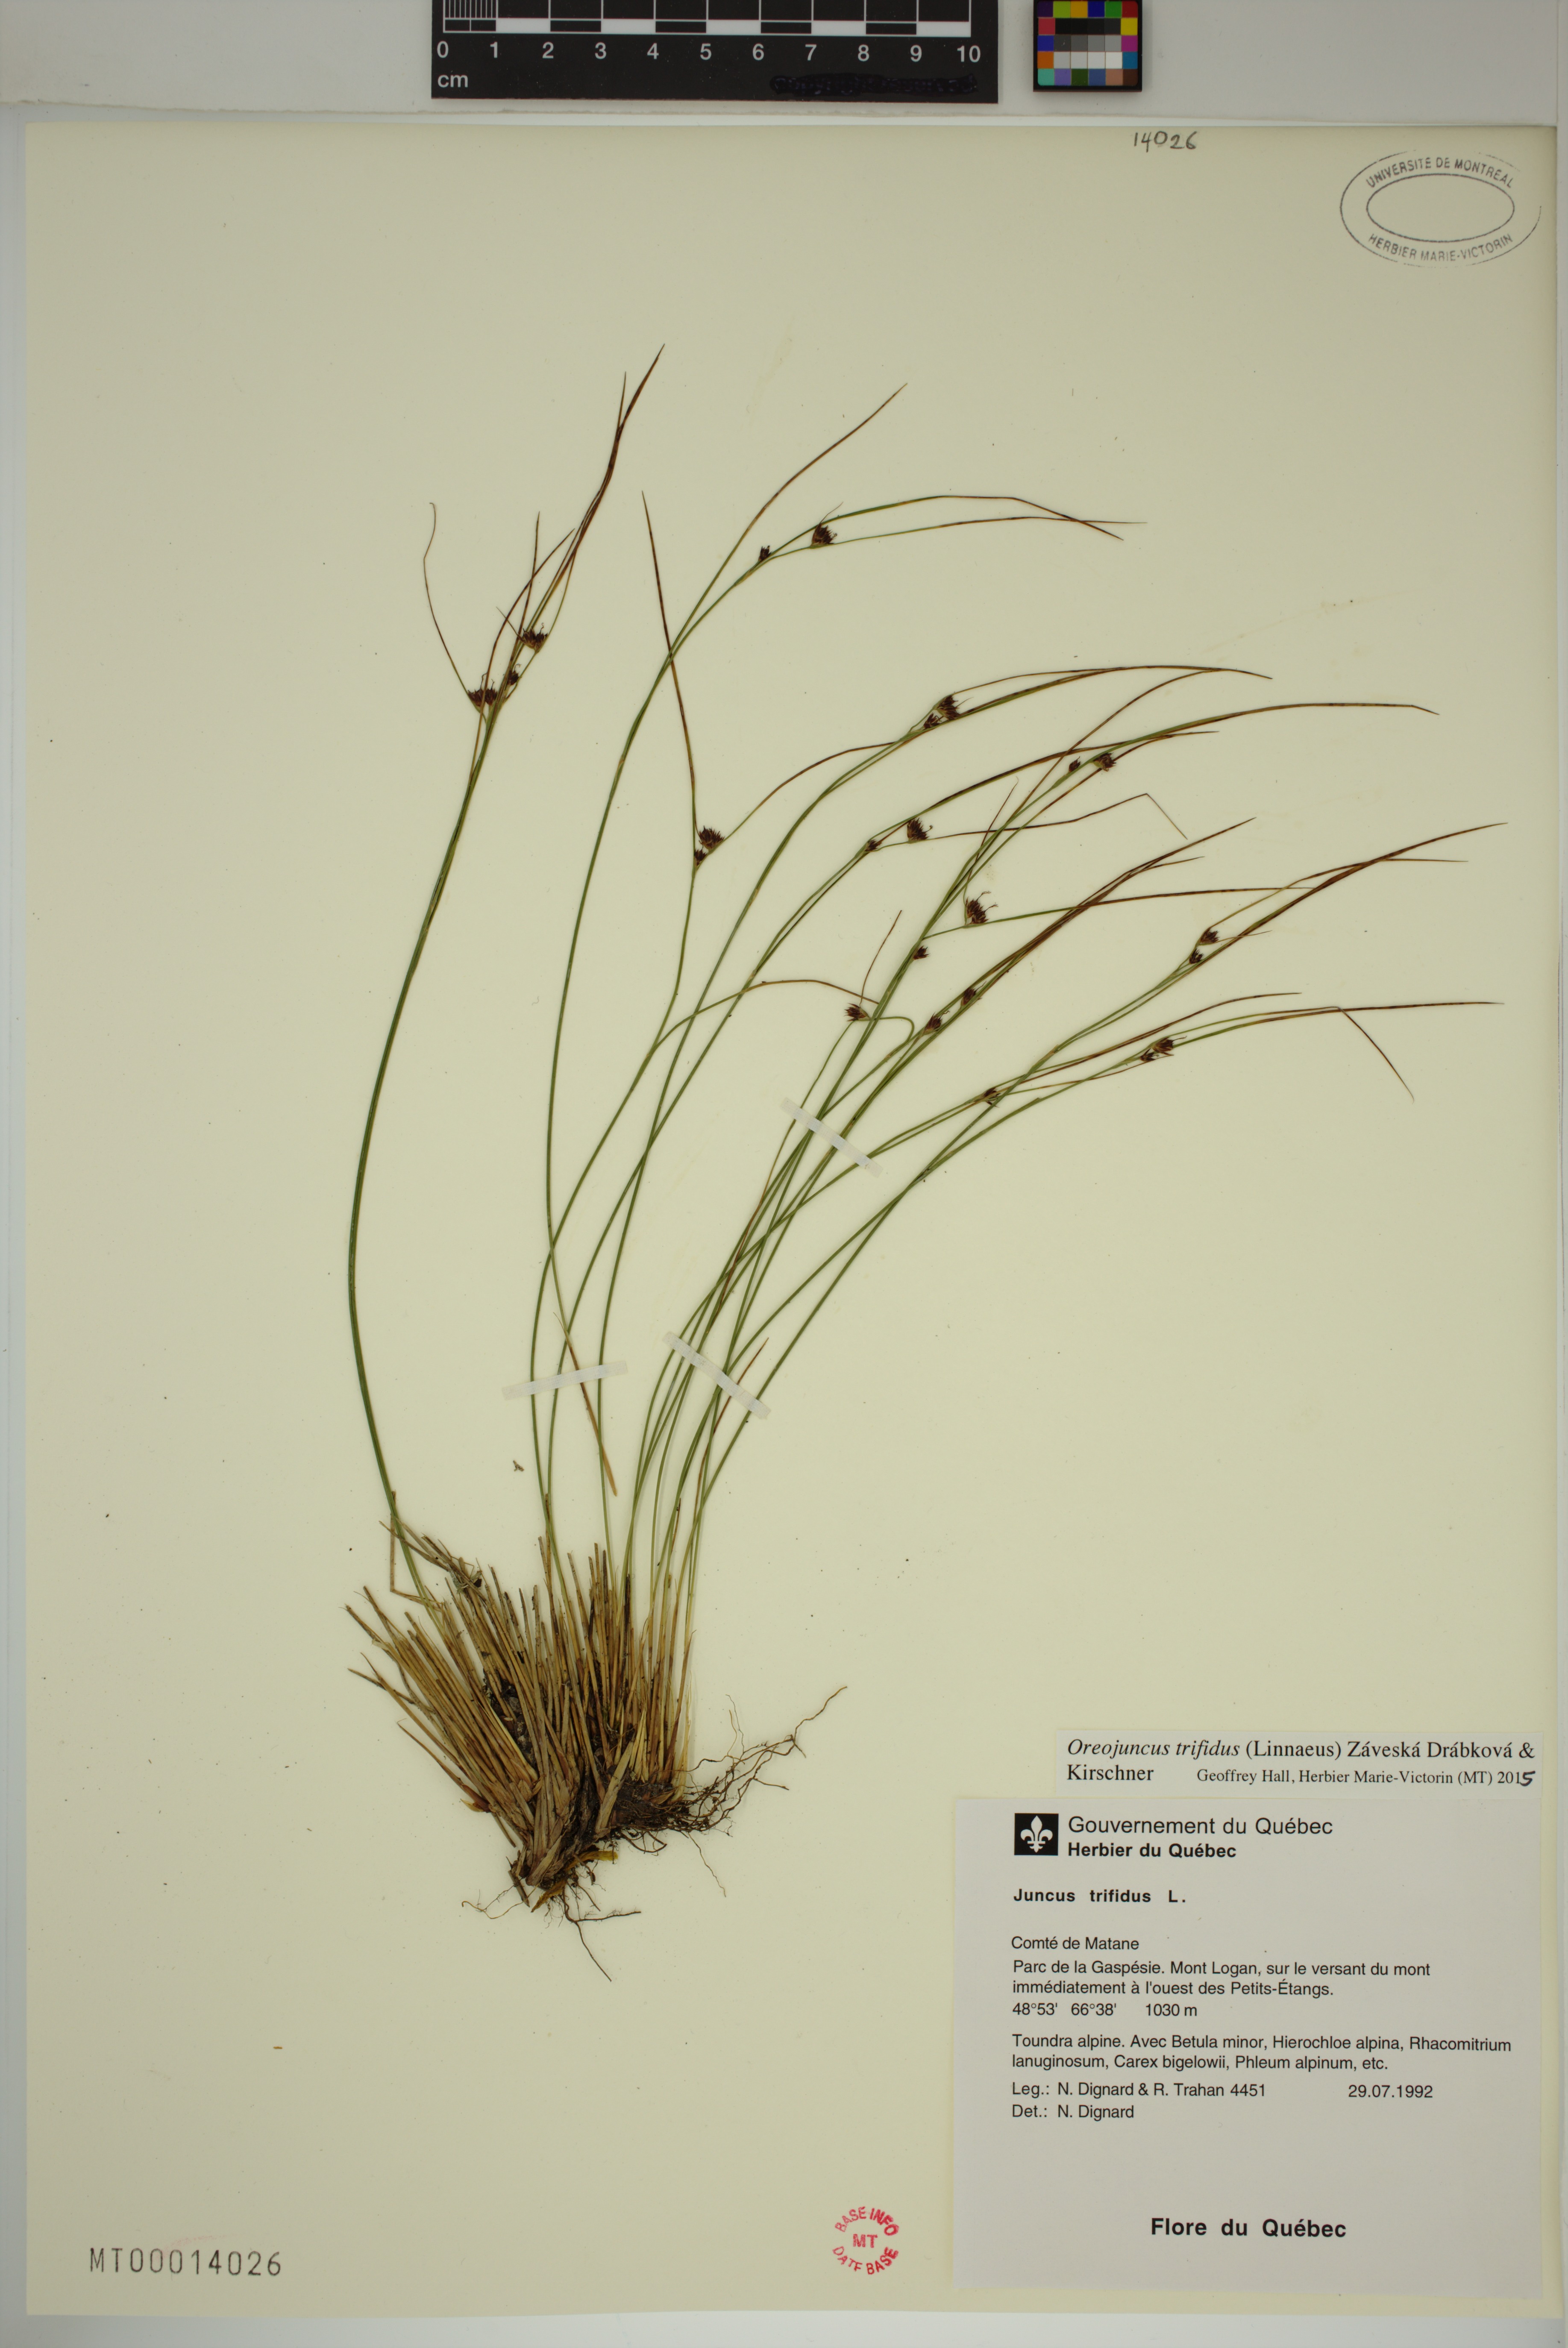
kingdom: Plantae
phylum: Tracheophyta
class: Liliopsida
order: Poales
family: Juncaceae
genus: Oreojuncus
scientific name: Oreojuncus trifidus
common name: Highland rush
